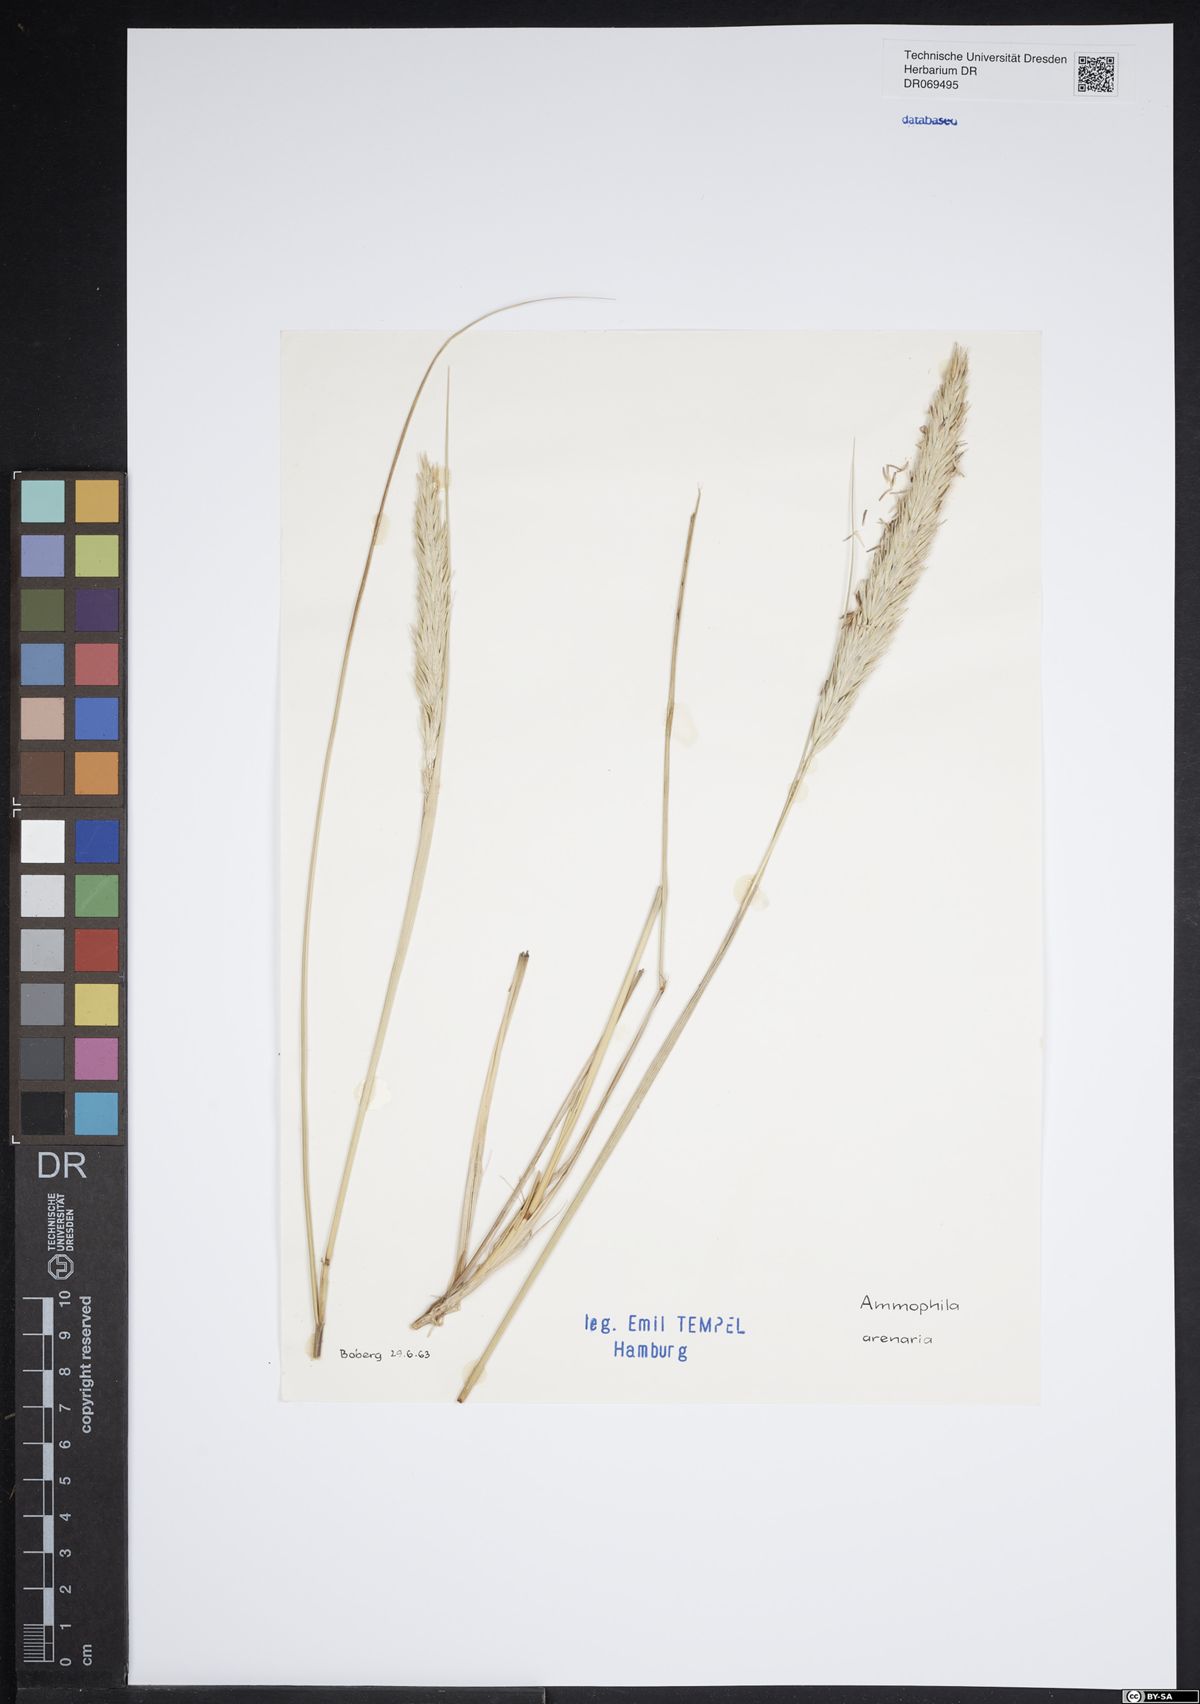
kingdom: Plantae
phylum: Tracheophyta
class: Liliopsida
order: Poales
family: Poaceae
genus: Calamagrostis
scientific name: Calamagrostis arenaria
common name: European beachgrass
